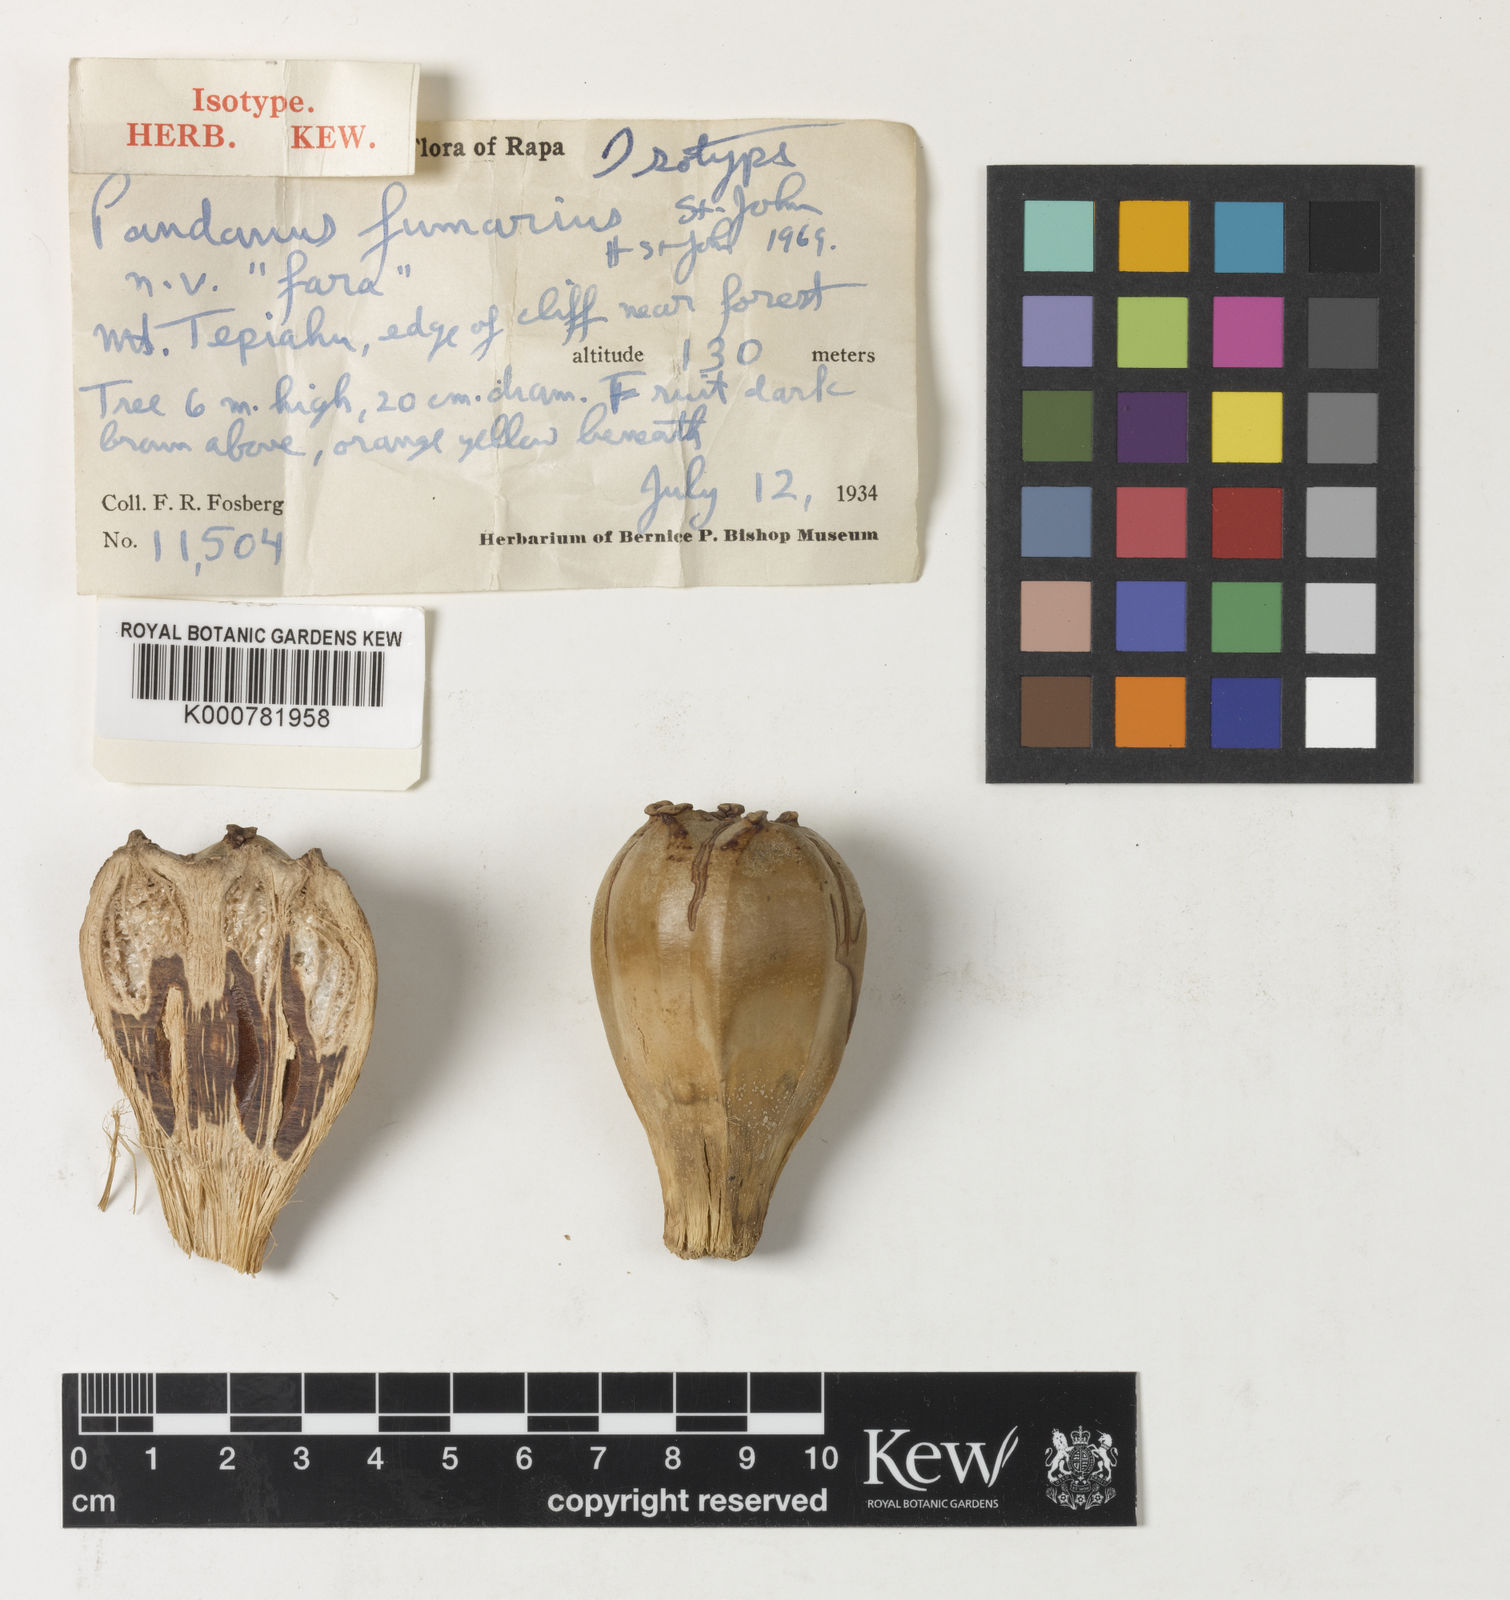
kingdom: Plantae
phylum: Tracheophyta
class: Liliopsida
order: Pandanales
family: Pandanaceae
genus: Pandanus
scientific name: Pandanus
